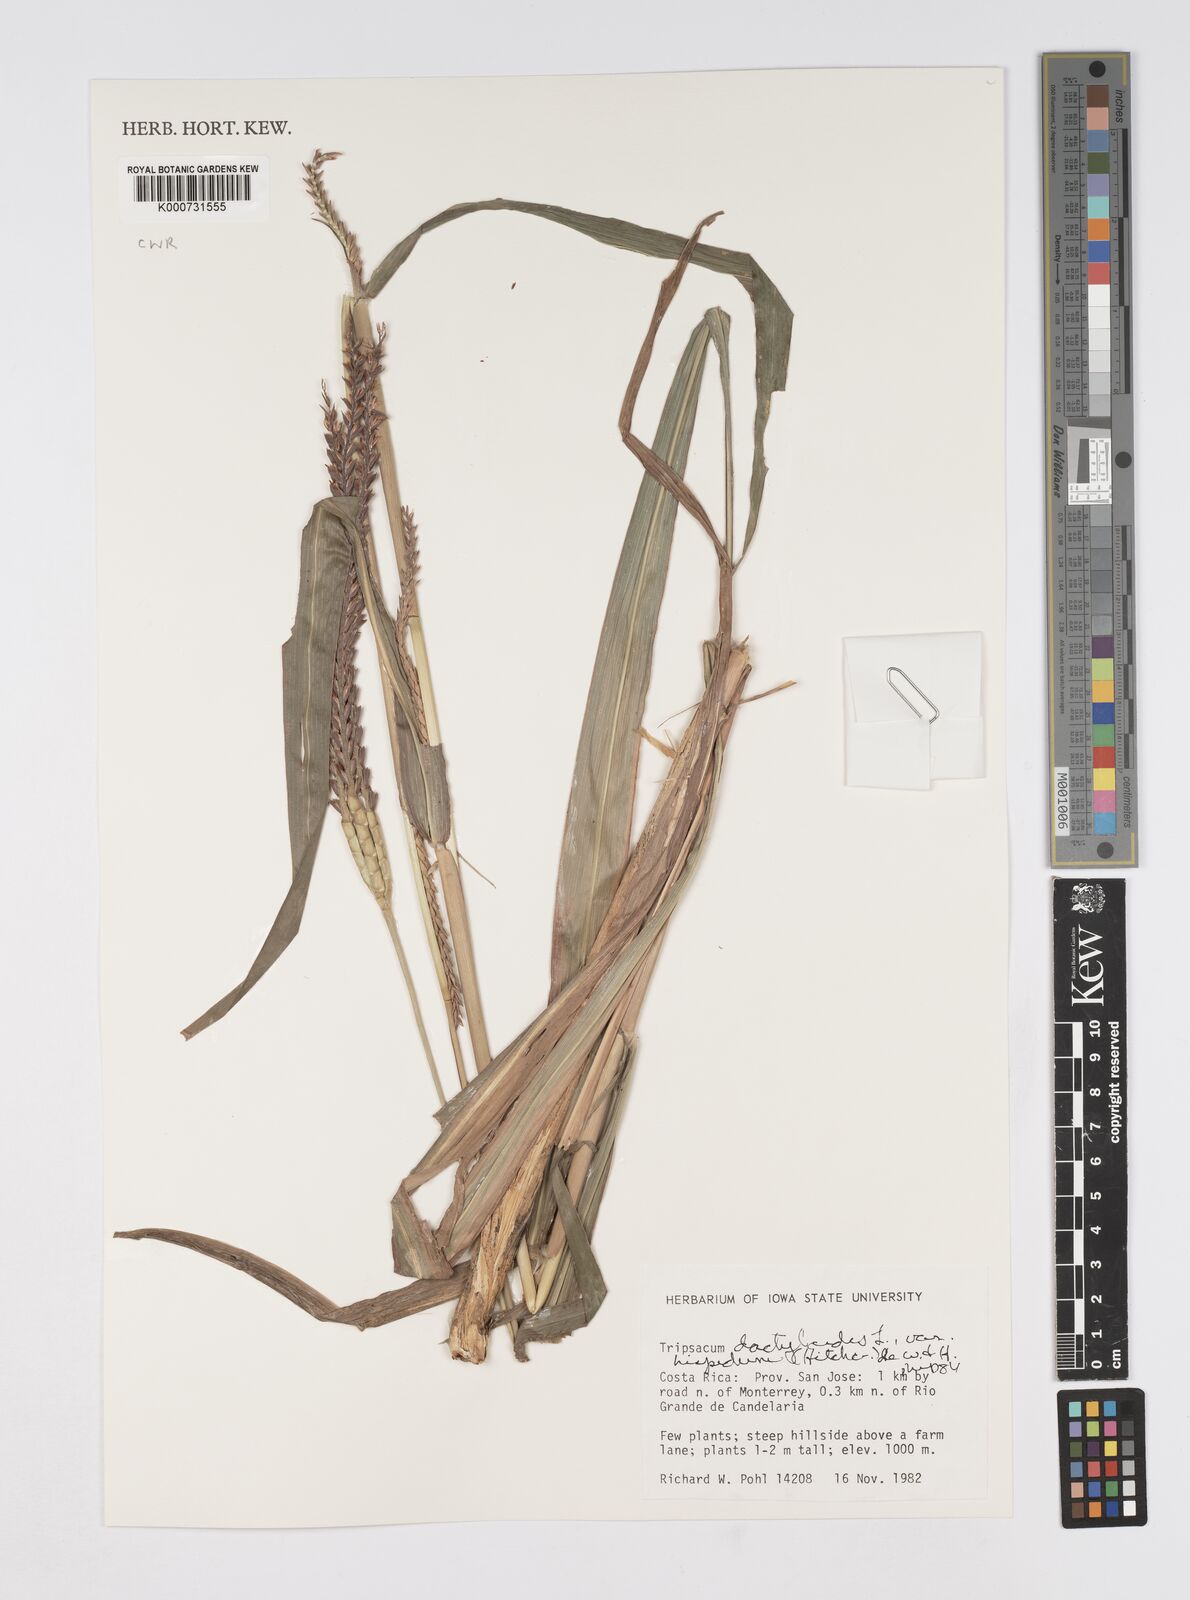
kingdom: Plantae
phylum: Tracheophyta
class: Liliopsida
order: Poales
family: Poaceae
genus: Tripsacum
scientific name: Tripsacum dactyloides
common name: Buffalo-grass
